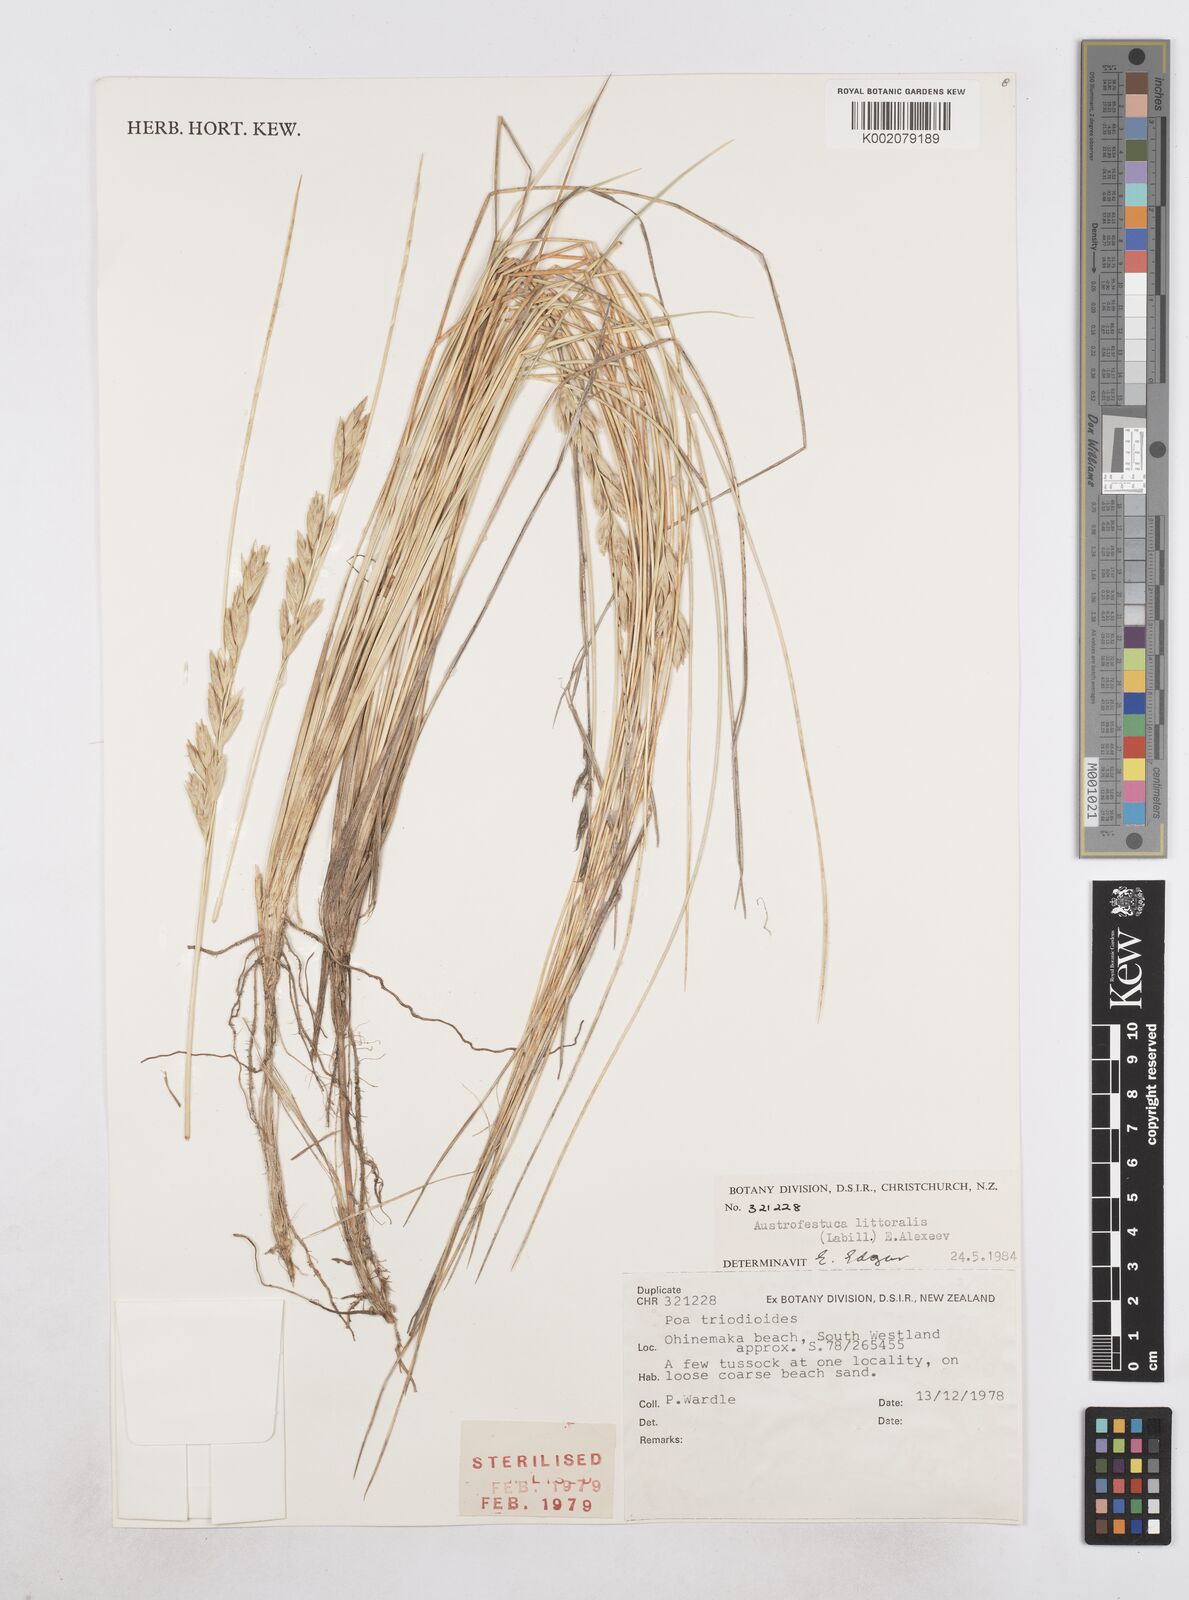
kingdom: Plantae
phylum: Tracheophyta
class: Liliopsida
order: Poales
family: Poaceae
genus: Poa
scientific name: Poa triodioides
